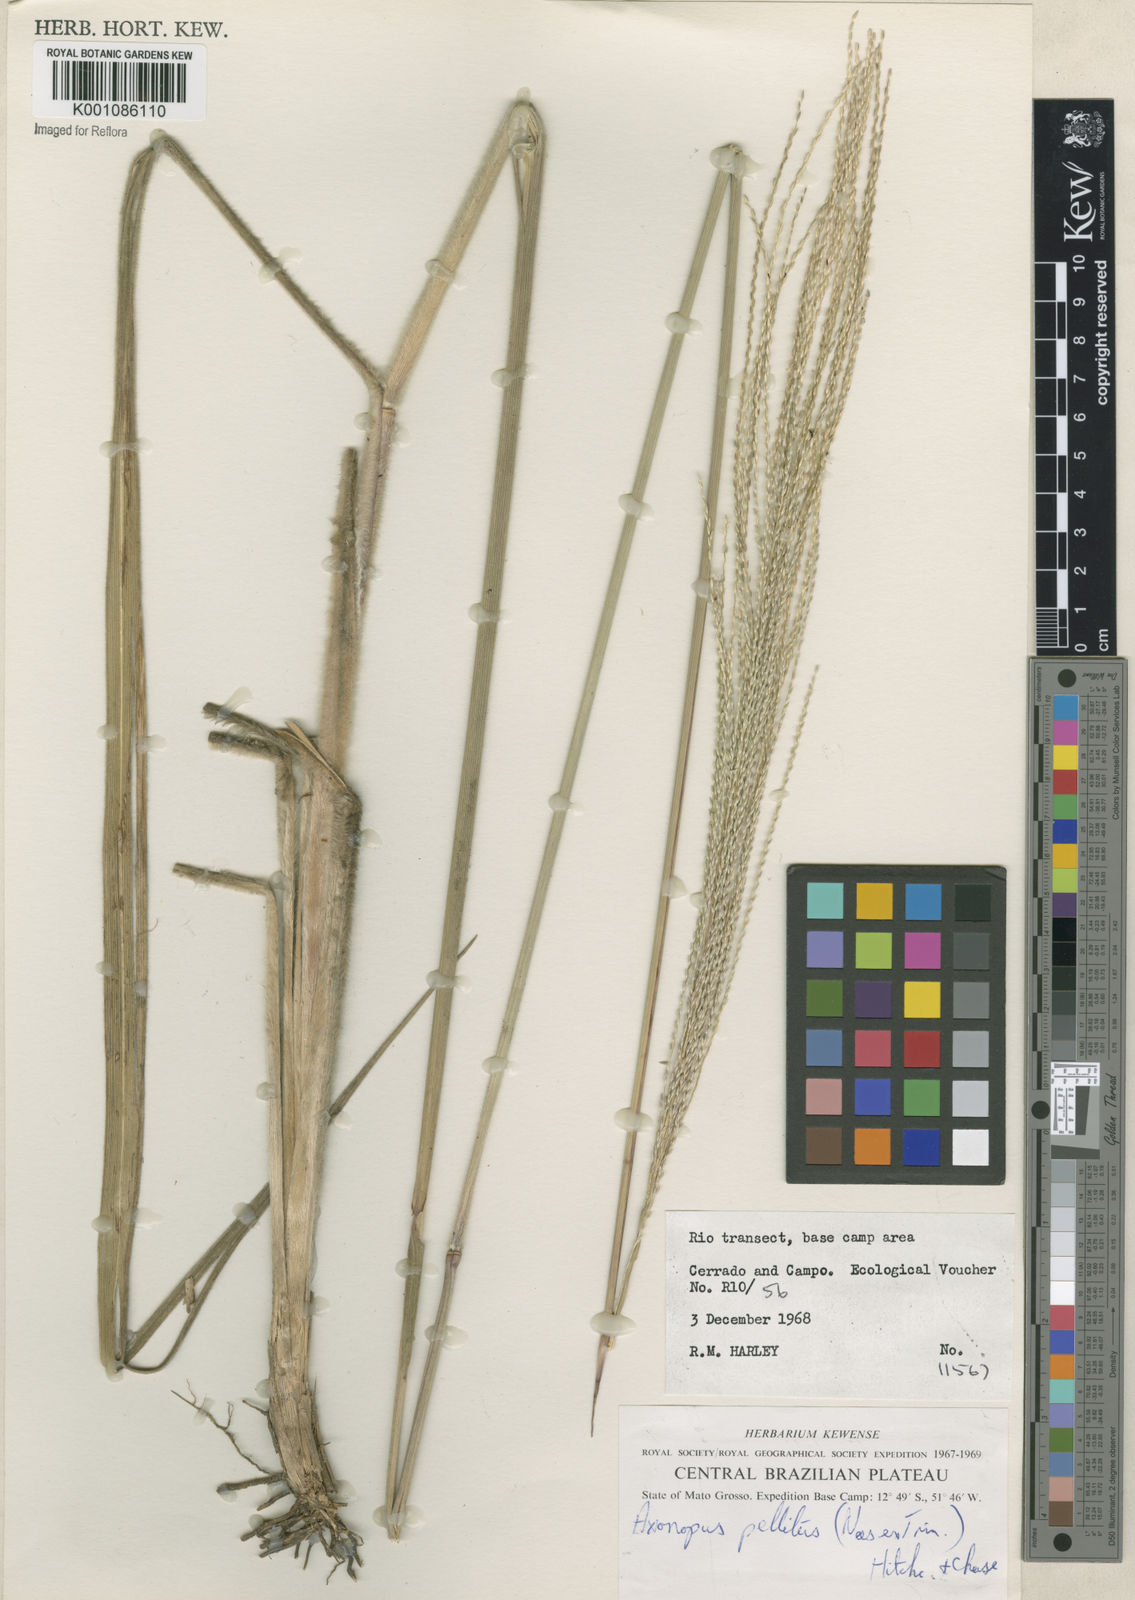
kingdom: Plantae
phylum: Tracheophyta
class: Liliopsida
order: Poales
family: Poaceae
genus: Axonopus
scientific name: Axonopus siccus
